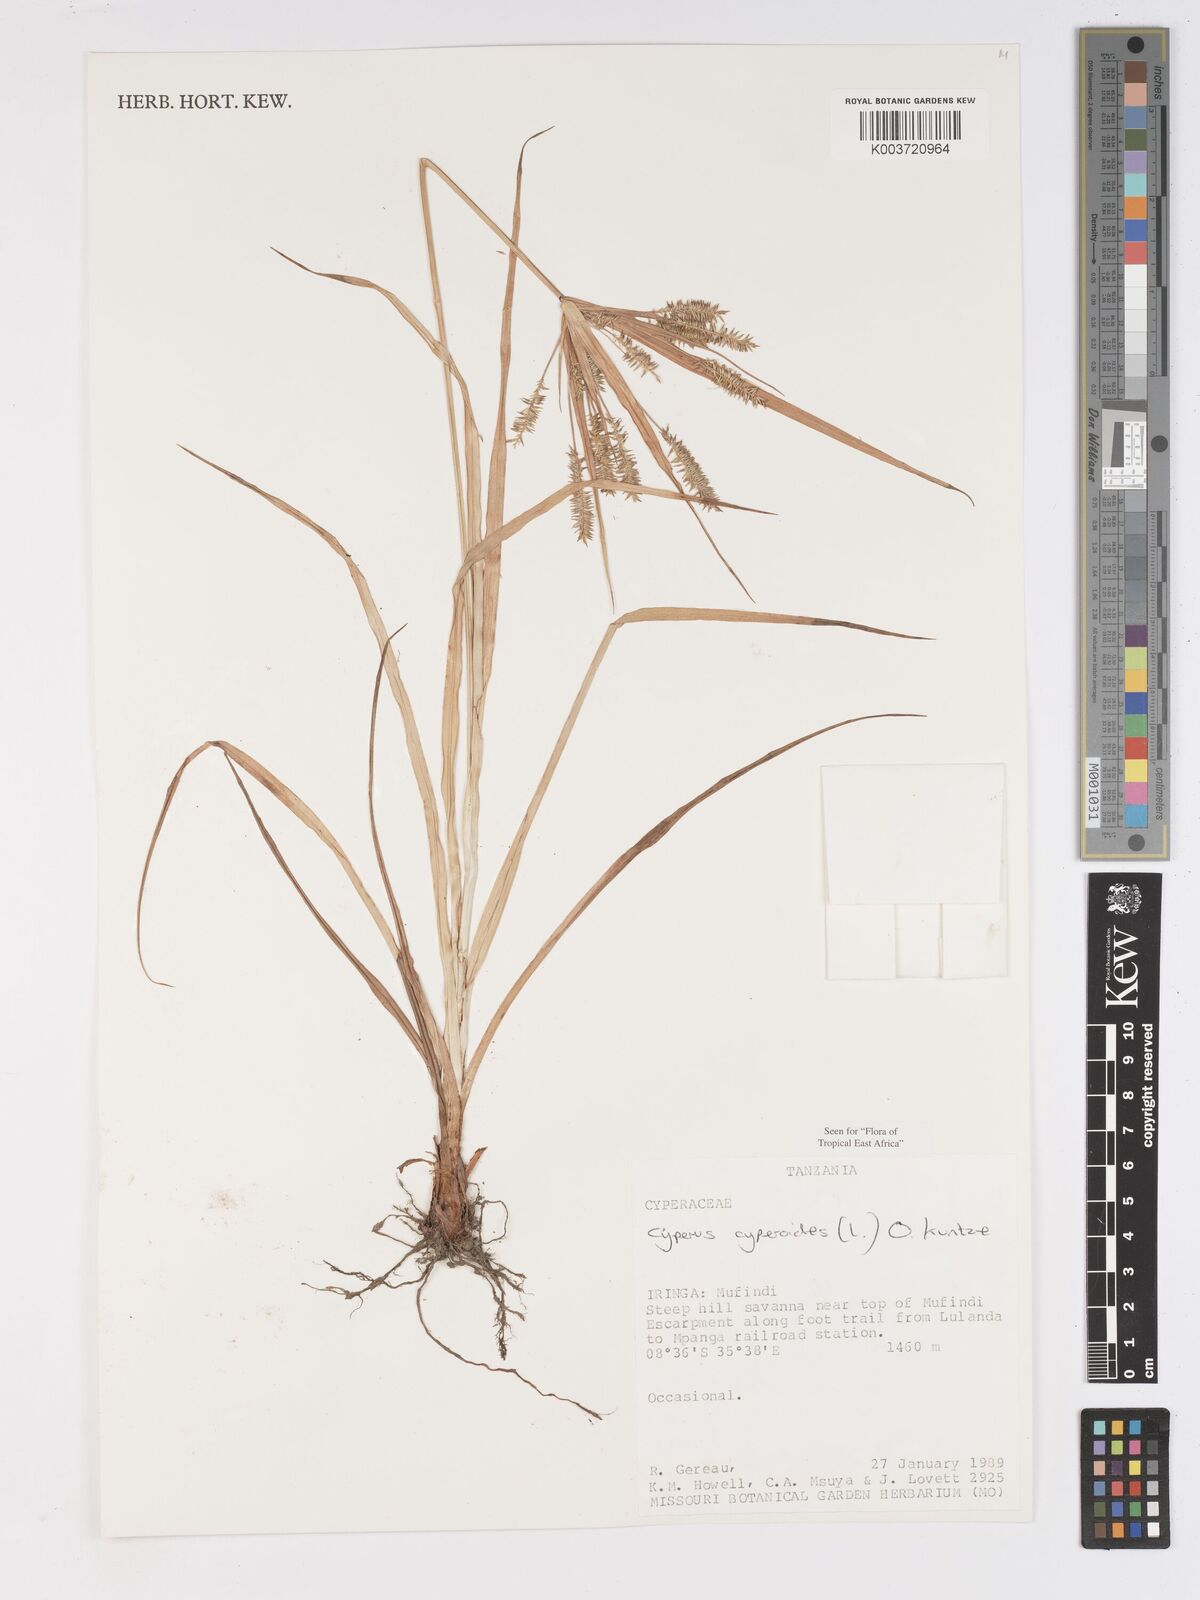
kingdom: Plantae
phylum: Tracheophyta
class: Liliopsida
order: Poales
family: Cyperaceae
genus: Cyperus
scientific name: Cyperus cyperoides
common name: Pacific island flat sedge
